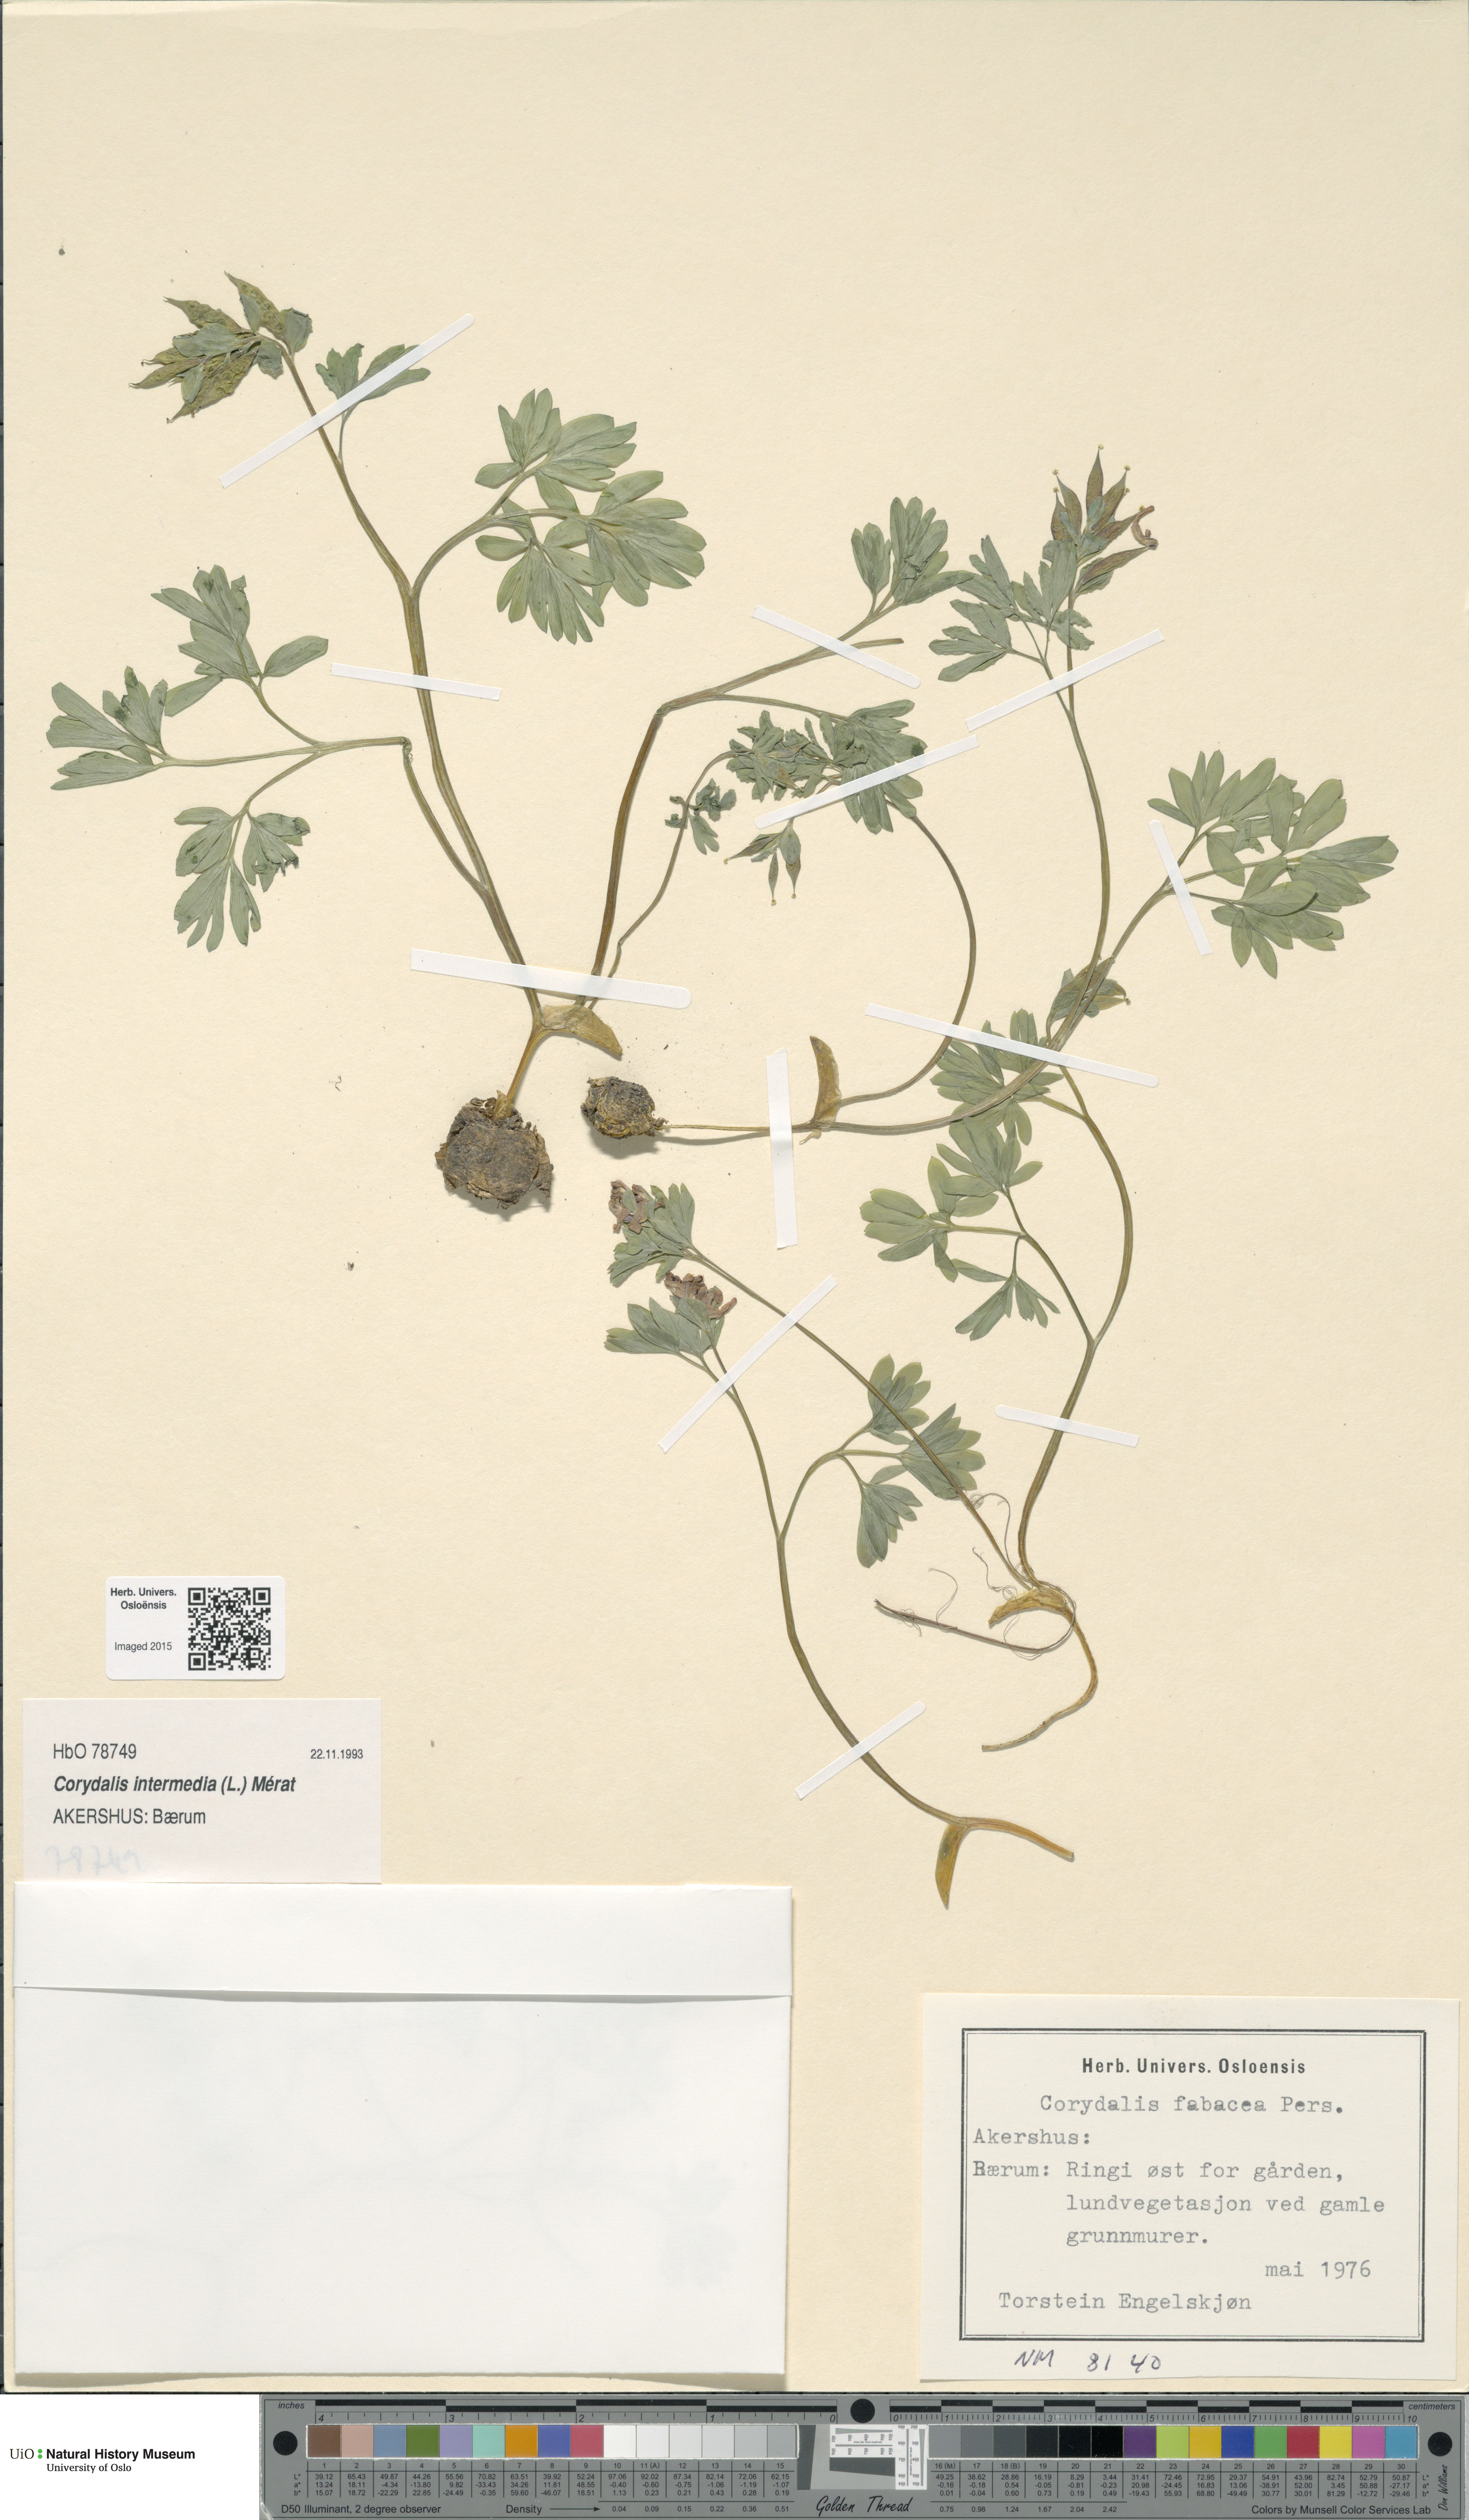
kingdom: Plantae
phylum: Tracheophyta
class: Magnoliopsida
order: Ranunculales
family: Papaveraceae
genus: Corydalis
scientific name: Corydalis intermedia
